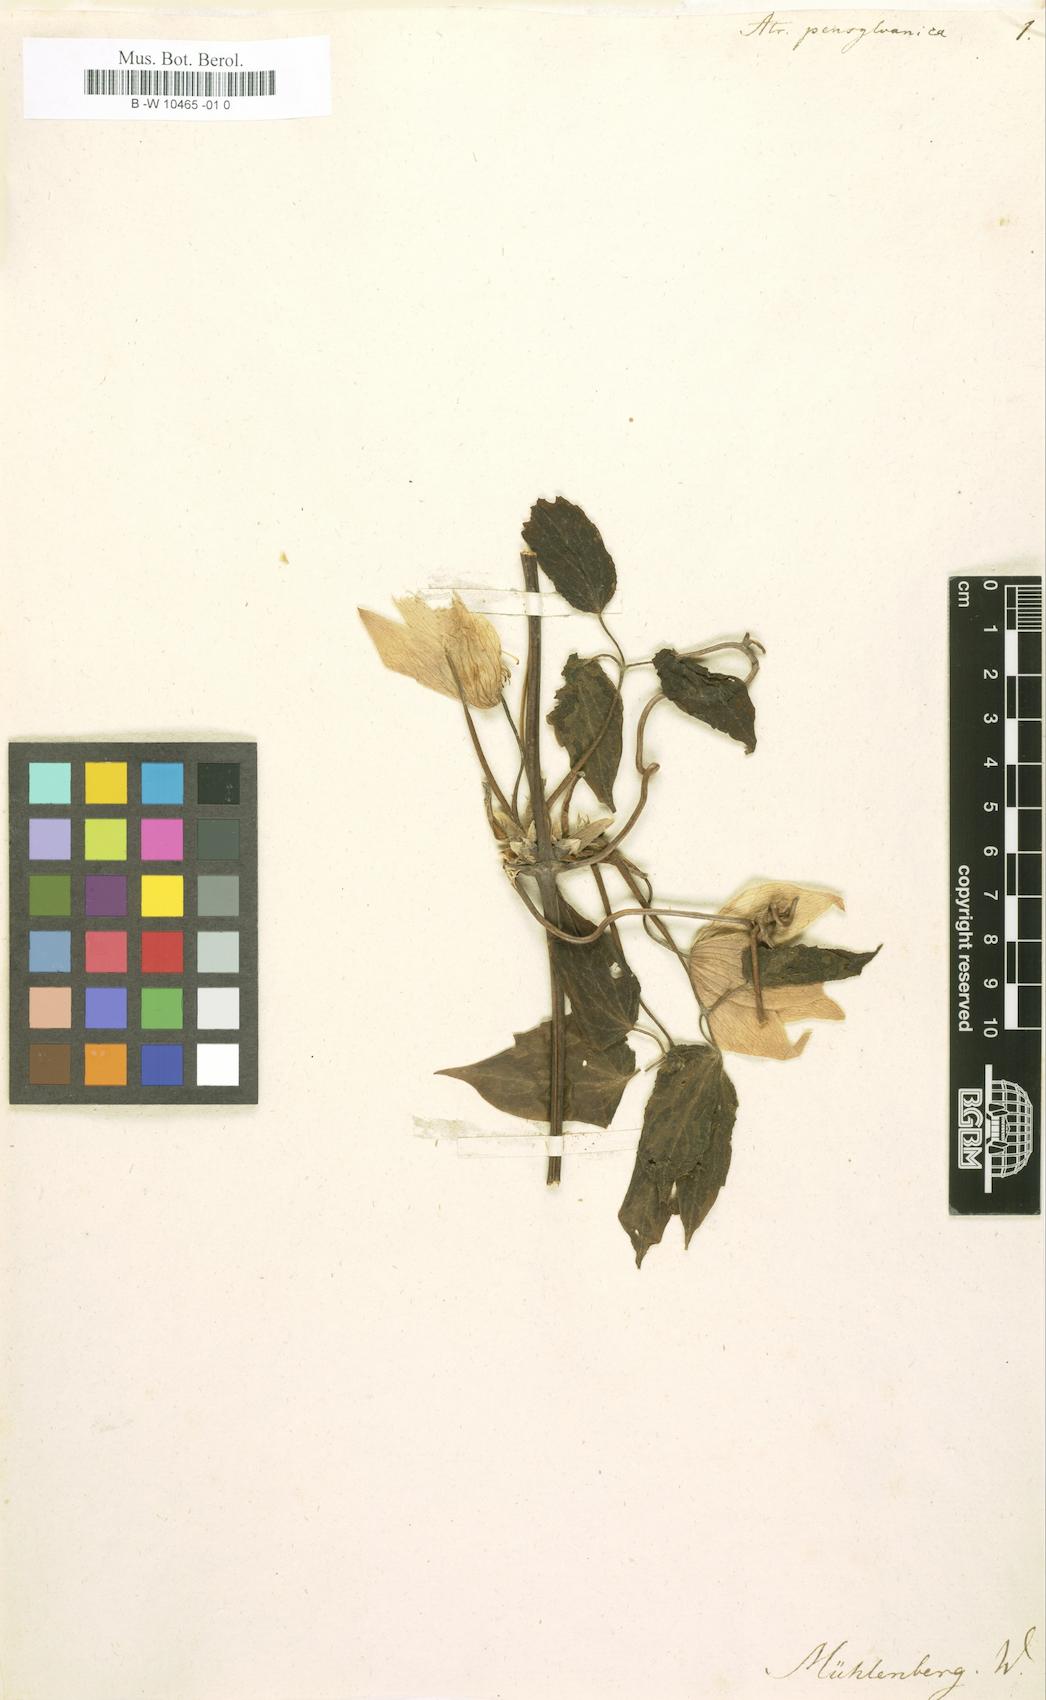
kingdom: Plantae
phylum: Tracheophyta
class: Magnoliopsida
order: Ranunculales
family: Ranunculaceae
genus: Clematis
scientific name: Clematis
